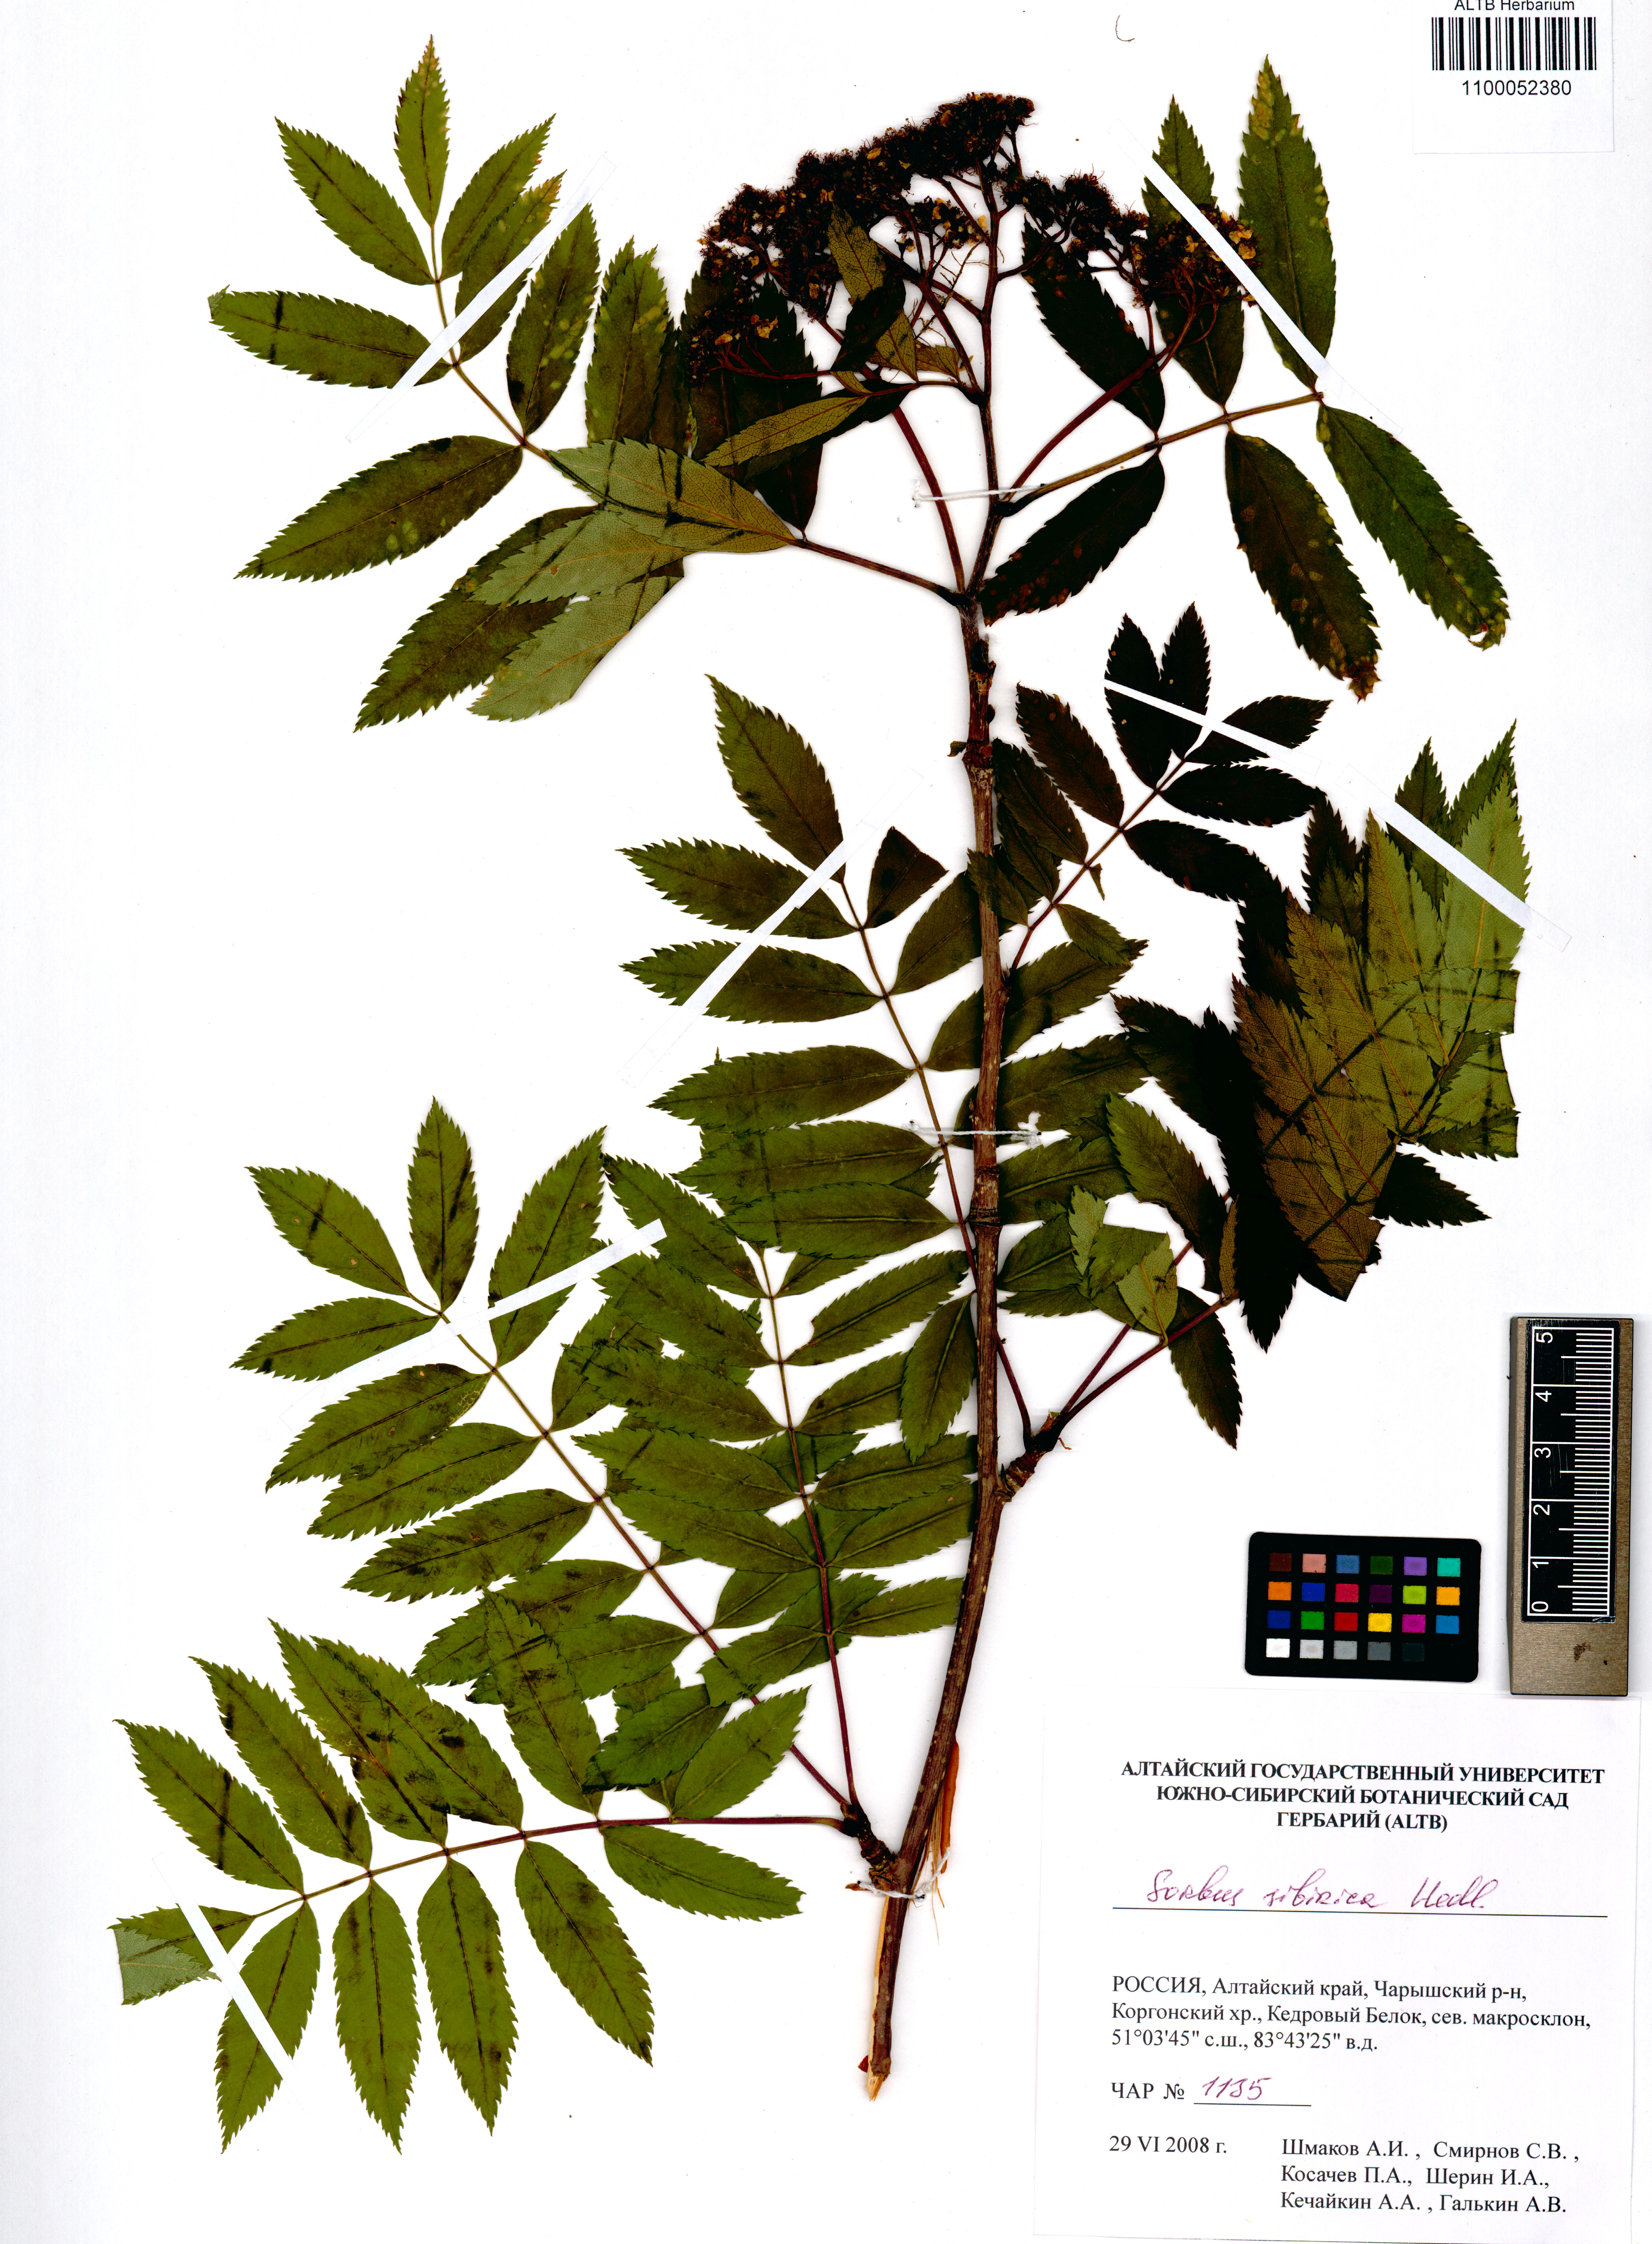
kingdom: Plantae
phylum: Tracheophyta
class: Magnoliopsida
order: Rosales
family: Rosaceae
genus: Sorbus
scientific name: Sorbus aucuparia
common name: Rowan
